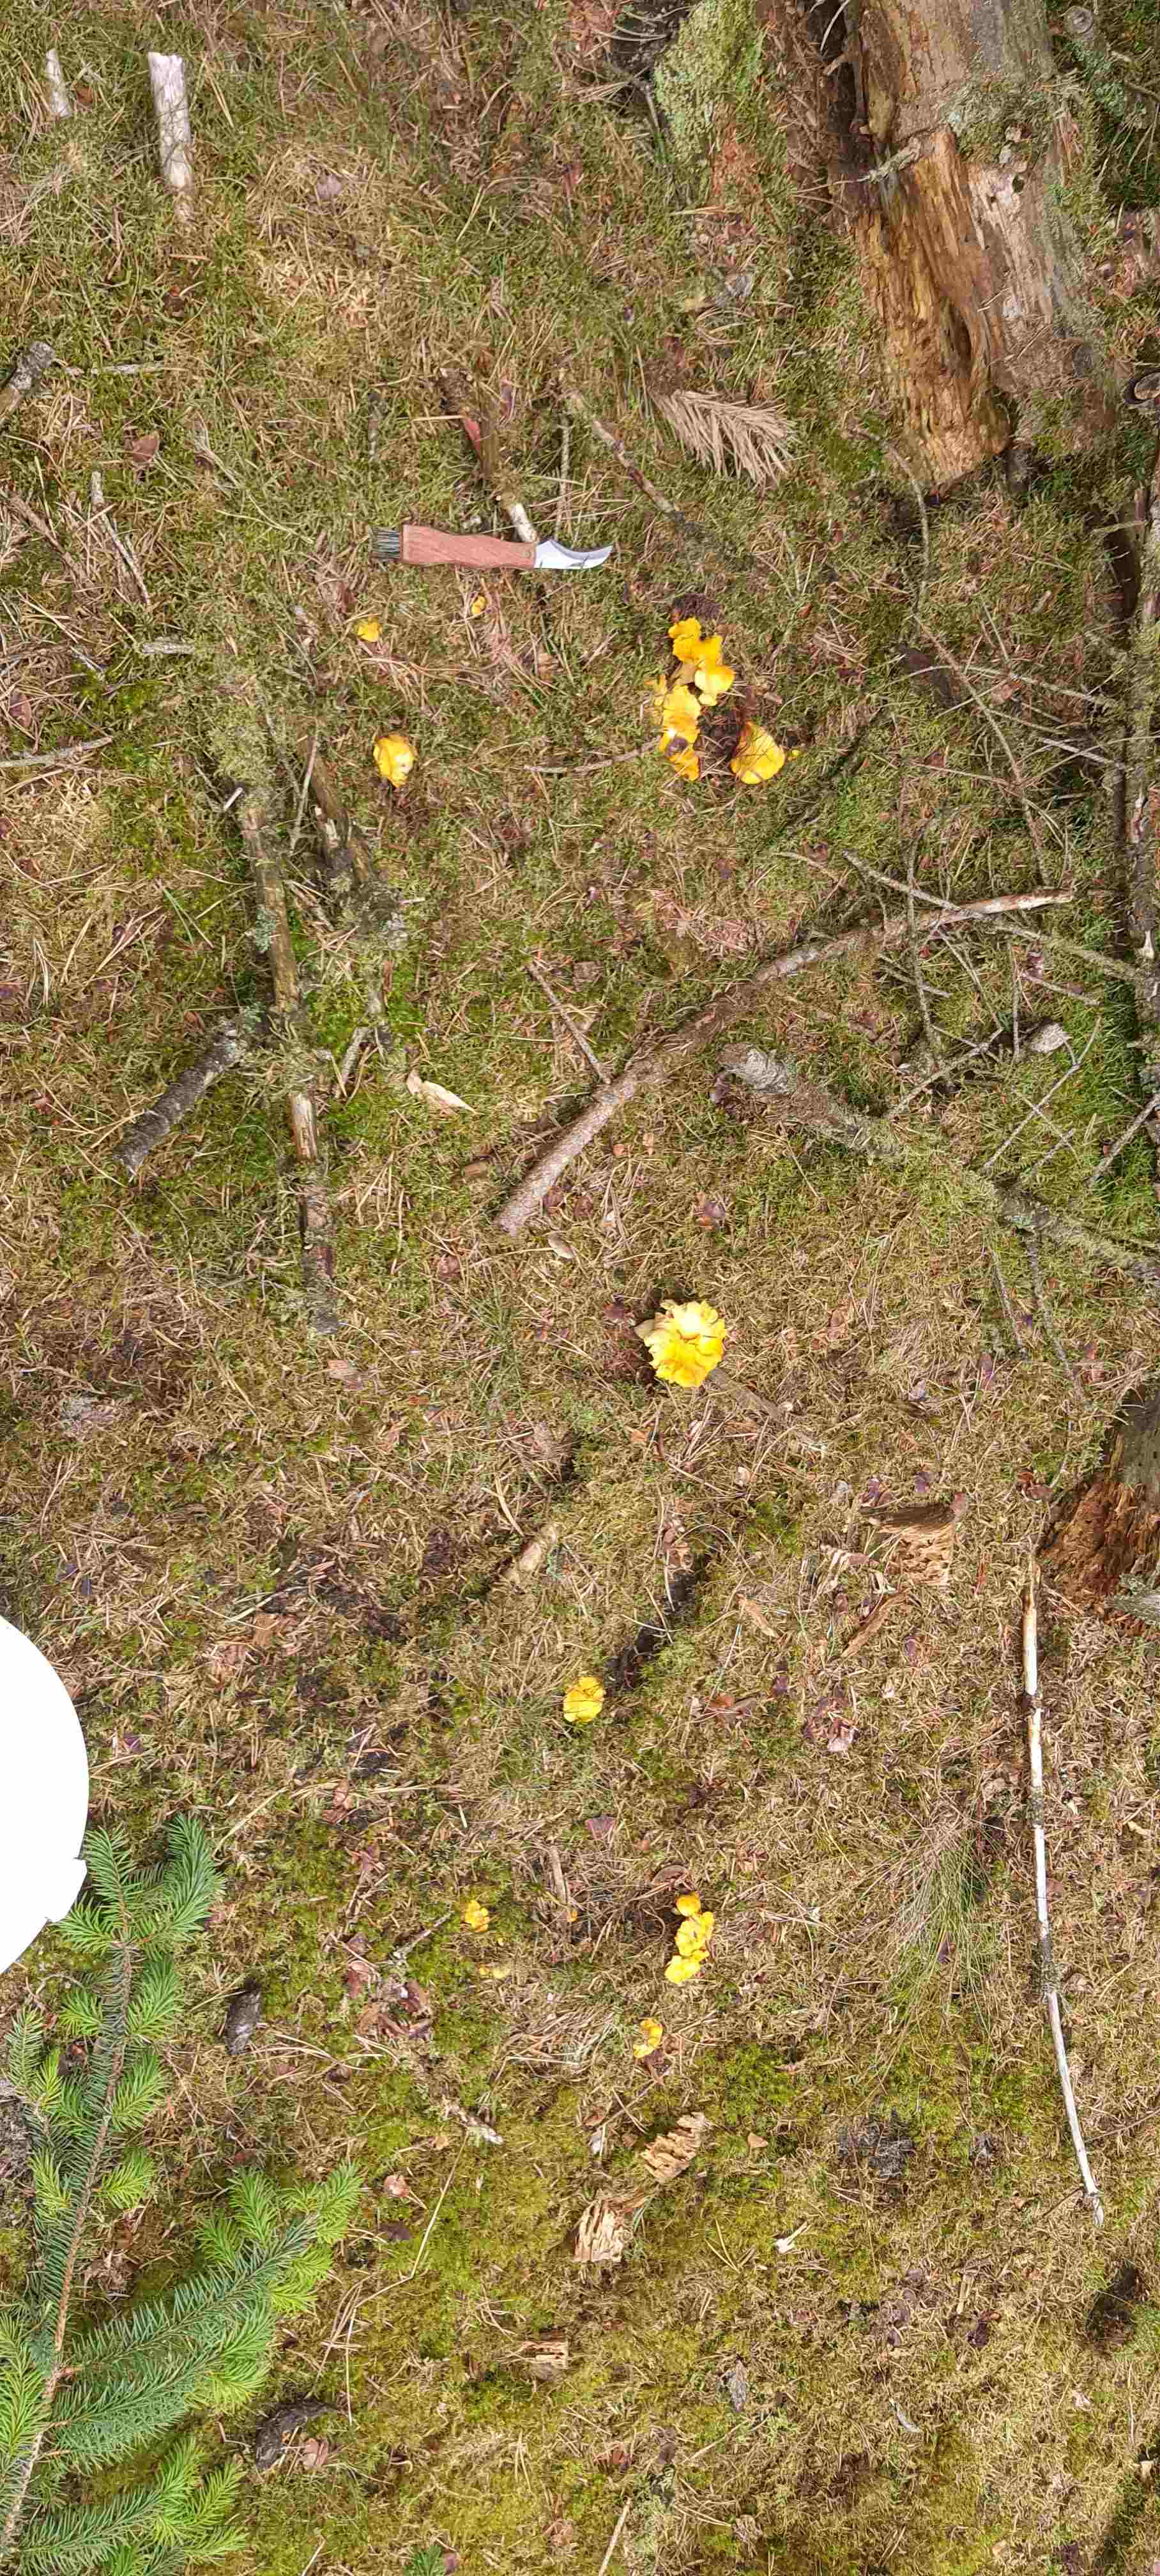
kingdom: Fungi
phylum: Basidiomycota
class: Agaricomycetes
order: Cantharellales
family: Hydnaceae
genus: Cantharellus
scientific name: Cantharellus cibarius
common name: almindelig kantarel
